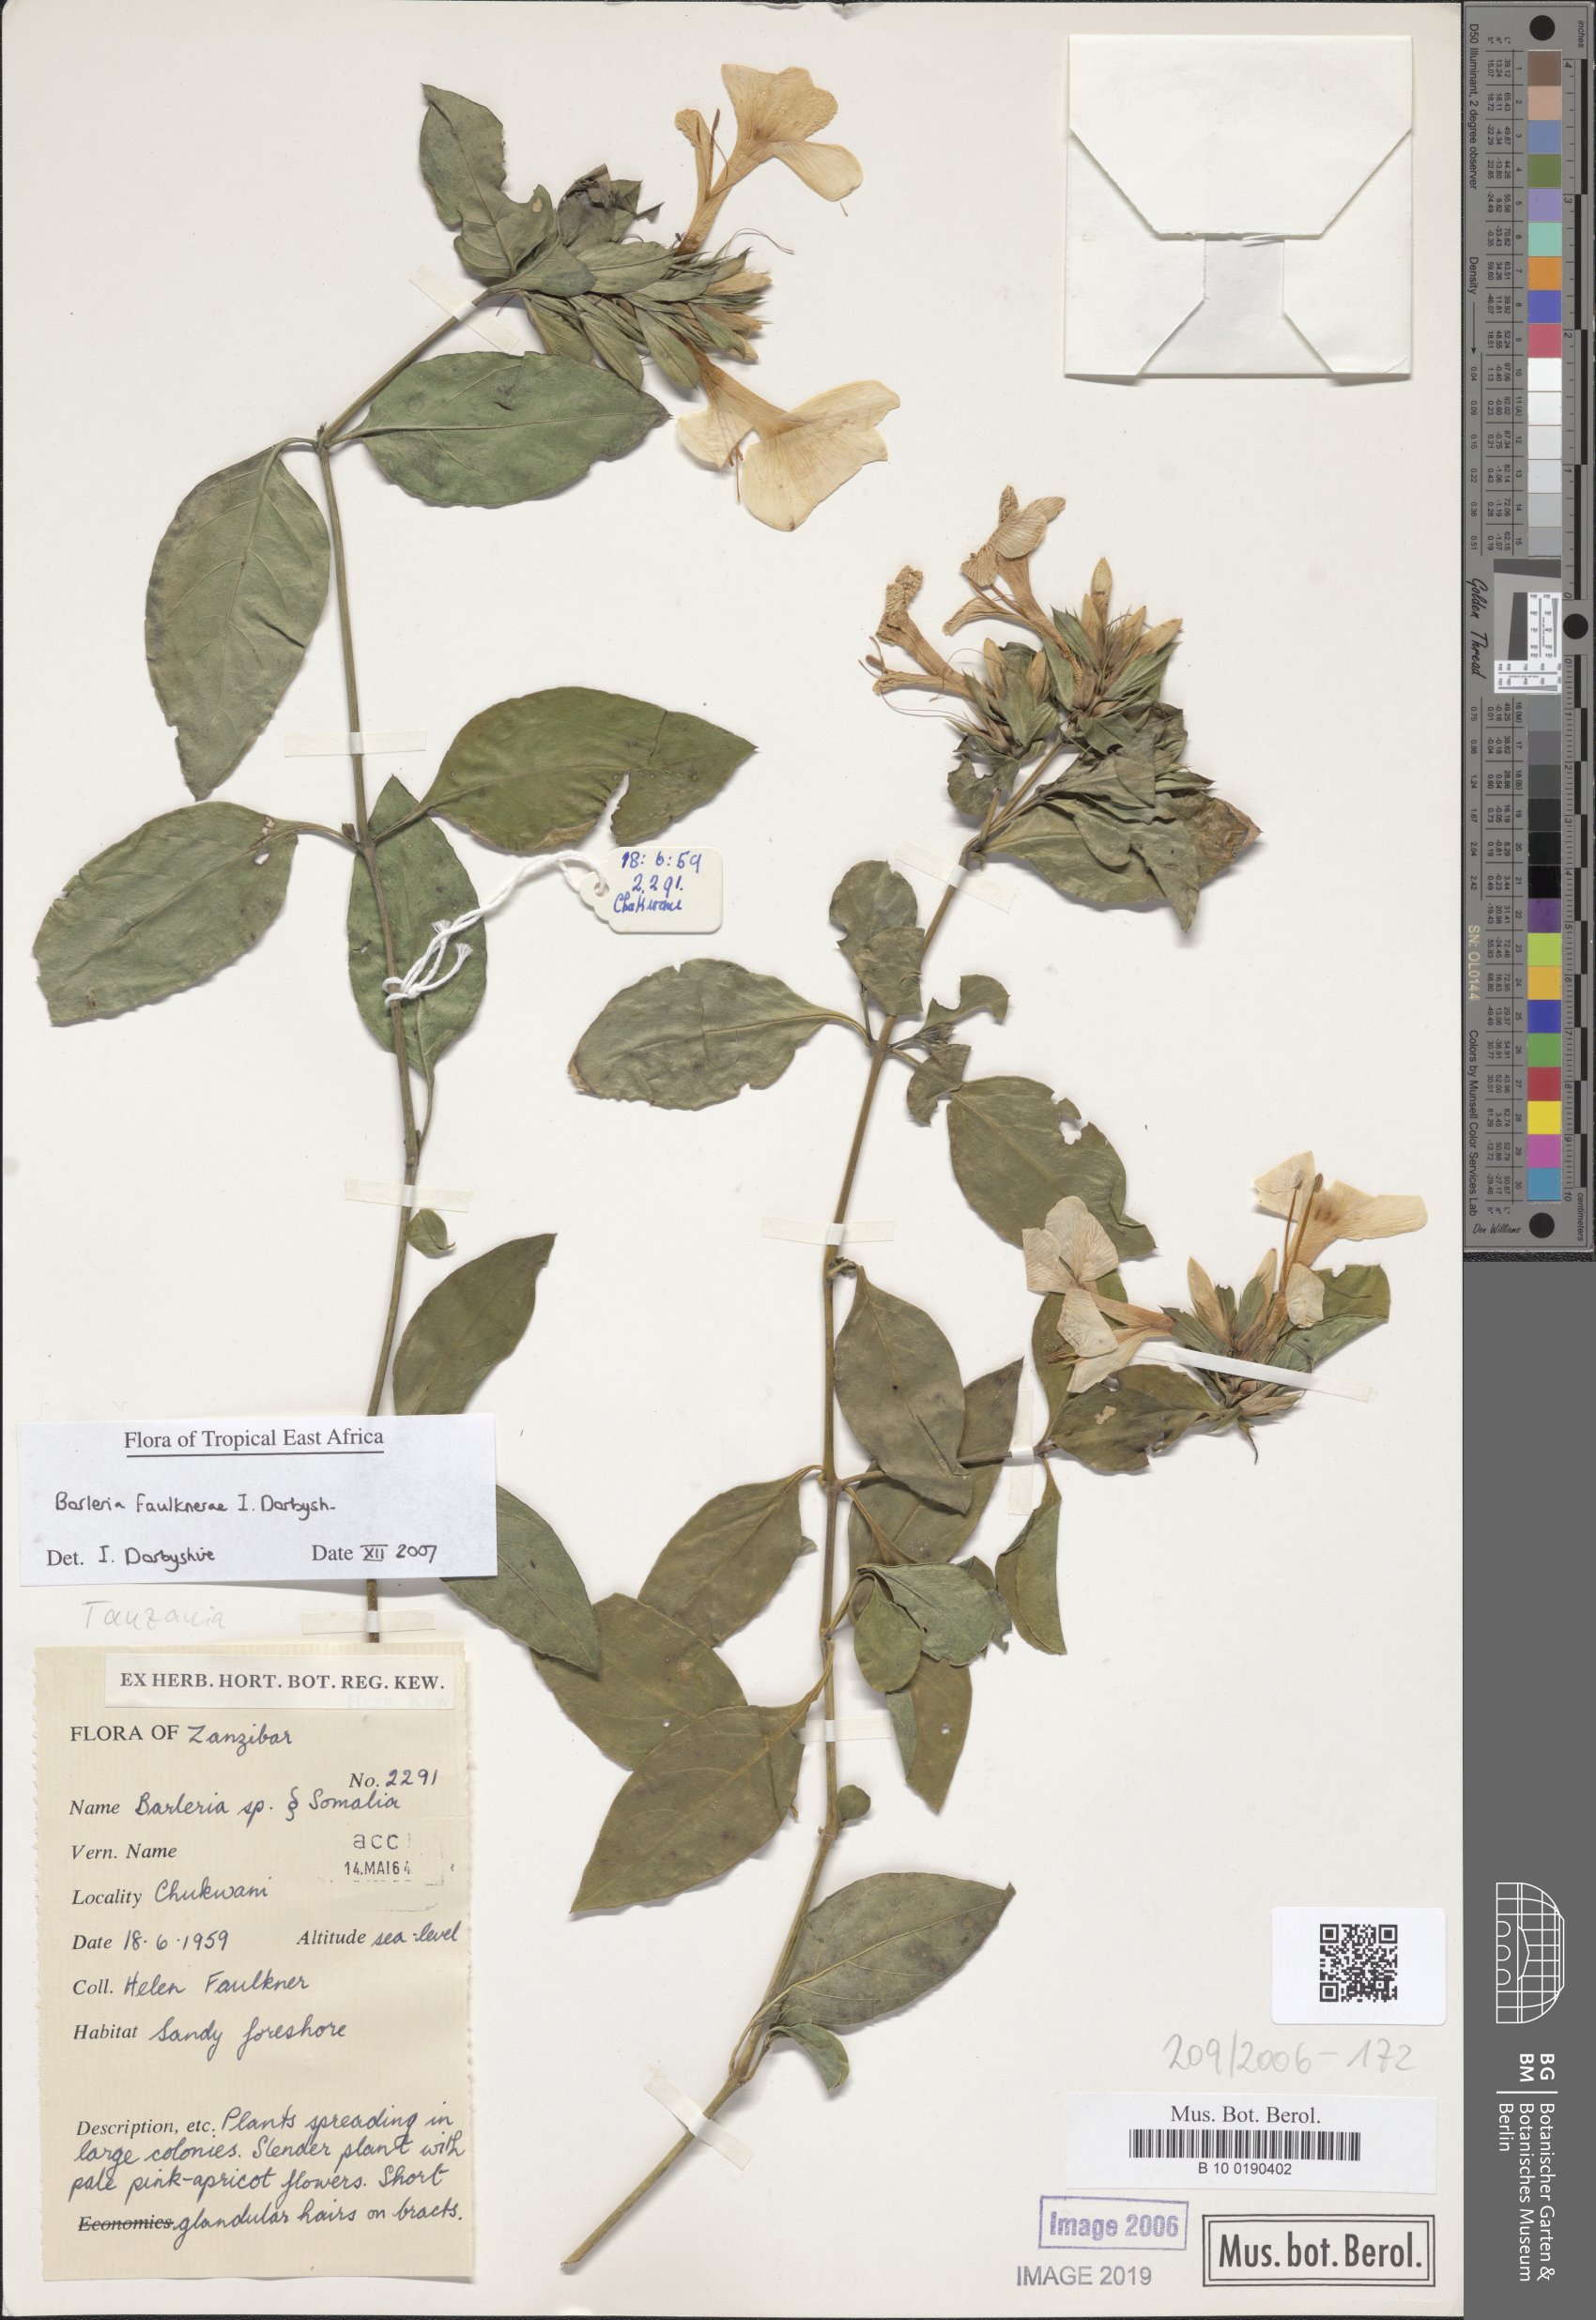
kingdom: Plantae
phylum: Tracheophyta
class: Magnoliopsida
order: Lamiales
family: Acanthaceae
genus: Barleria
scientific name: Barleria faulknerae
